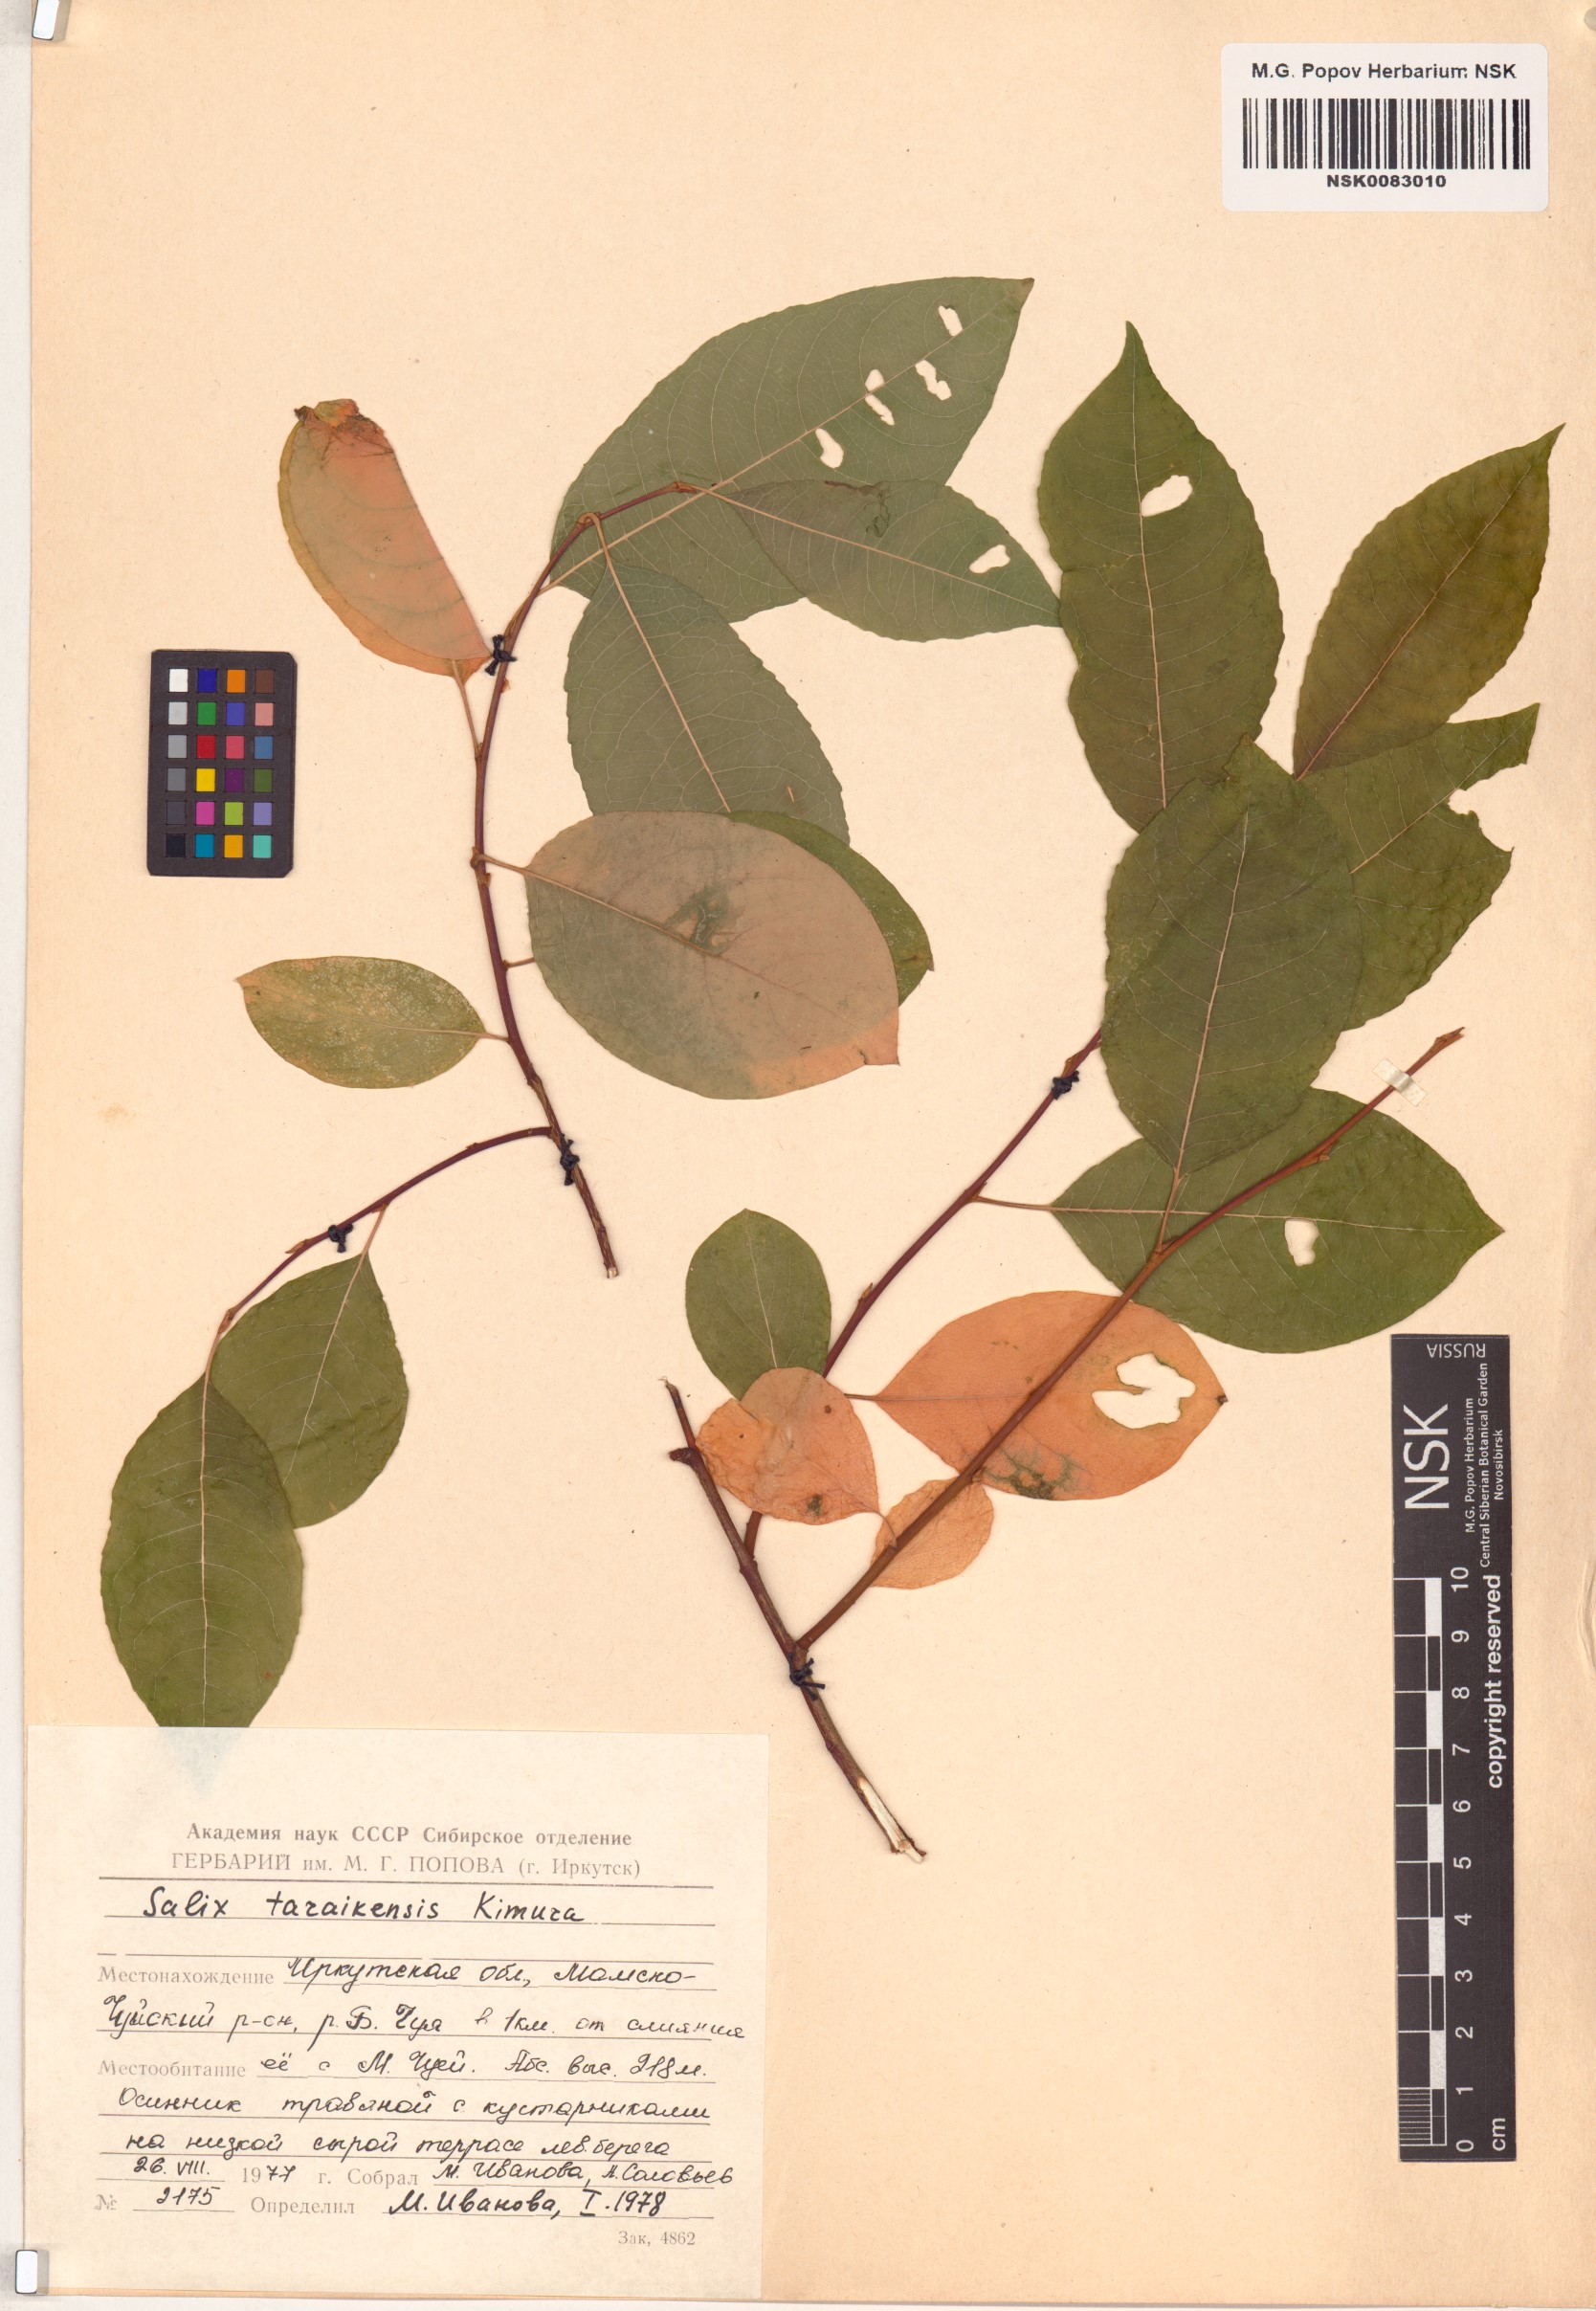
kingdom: Plantae
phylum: Tracheophyta
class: Magnoliopsida
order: Malpighiales
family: Salicaceae
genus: Salix
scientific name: Salix taraikensis
